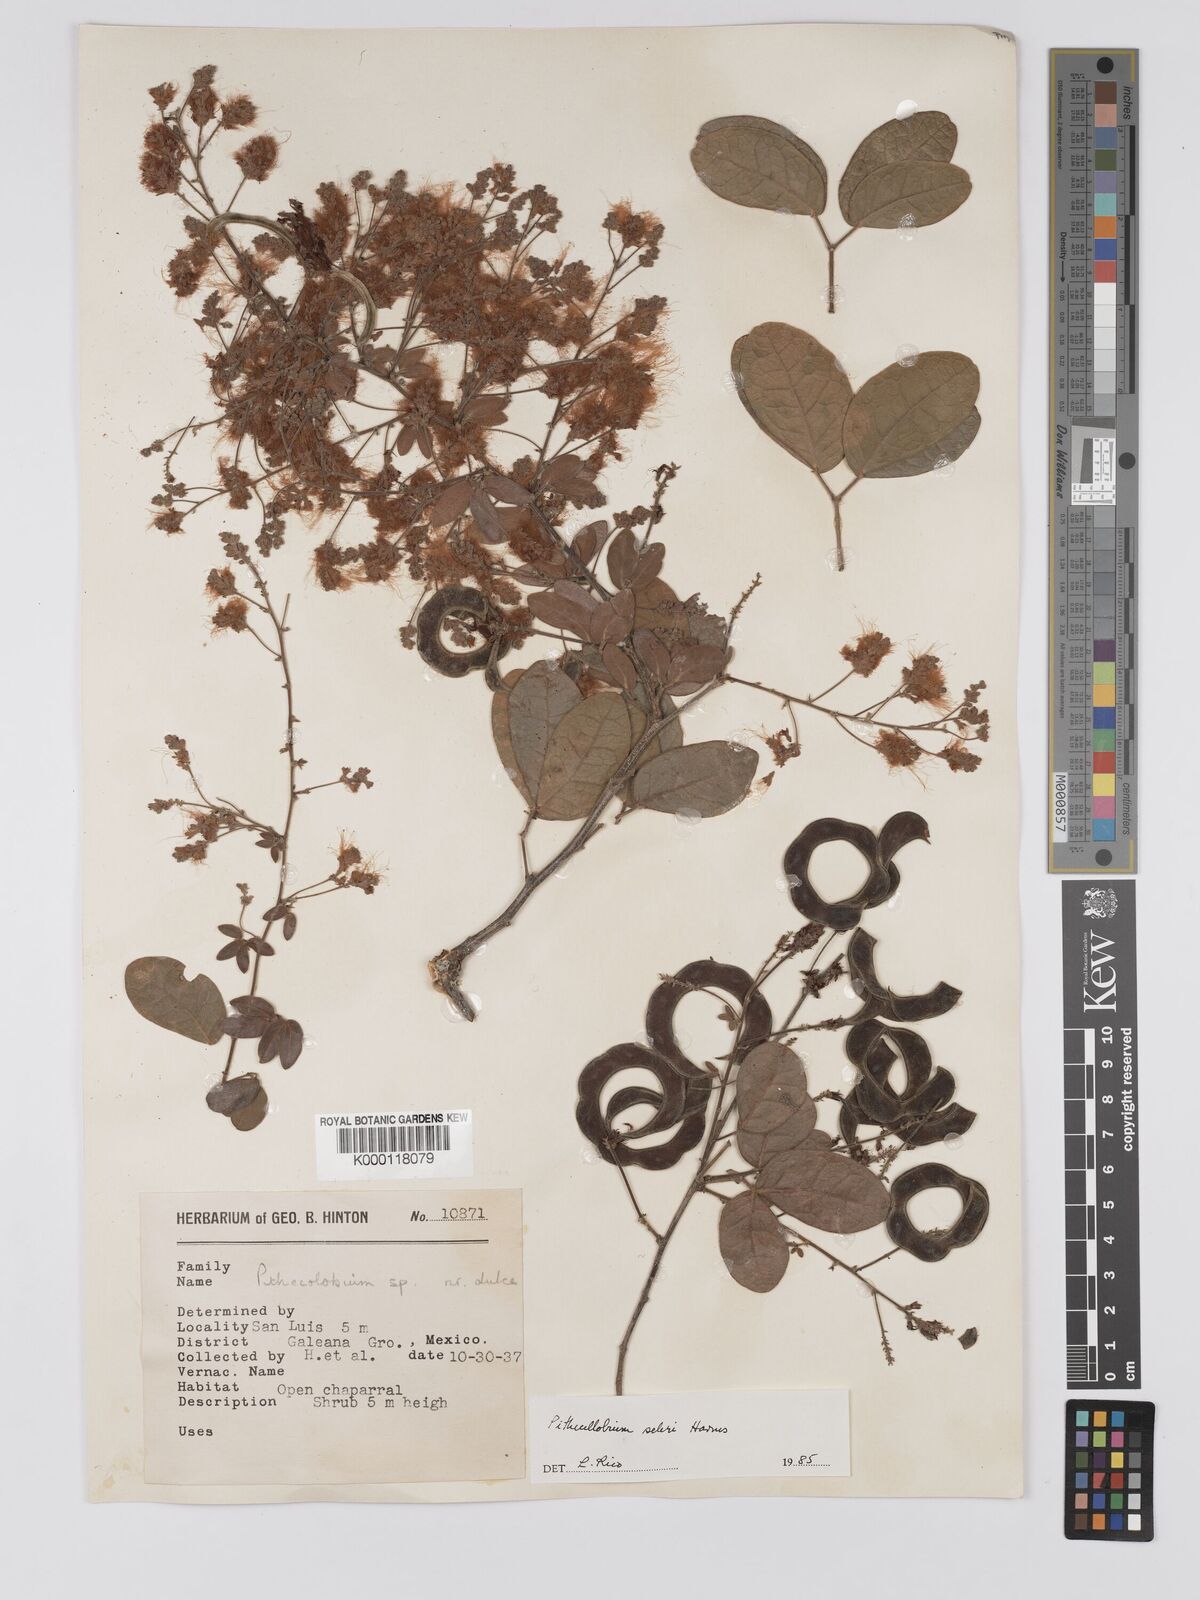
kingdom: Plantae
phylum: Tracheophyta
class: Magnoliopsida
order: Fabales
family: Fabaceae
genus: Pithecellobium
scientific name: Pithecellobium unguis-cati
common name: Cat's-claw
